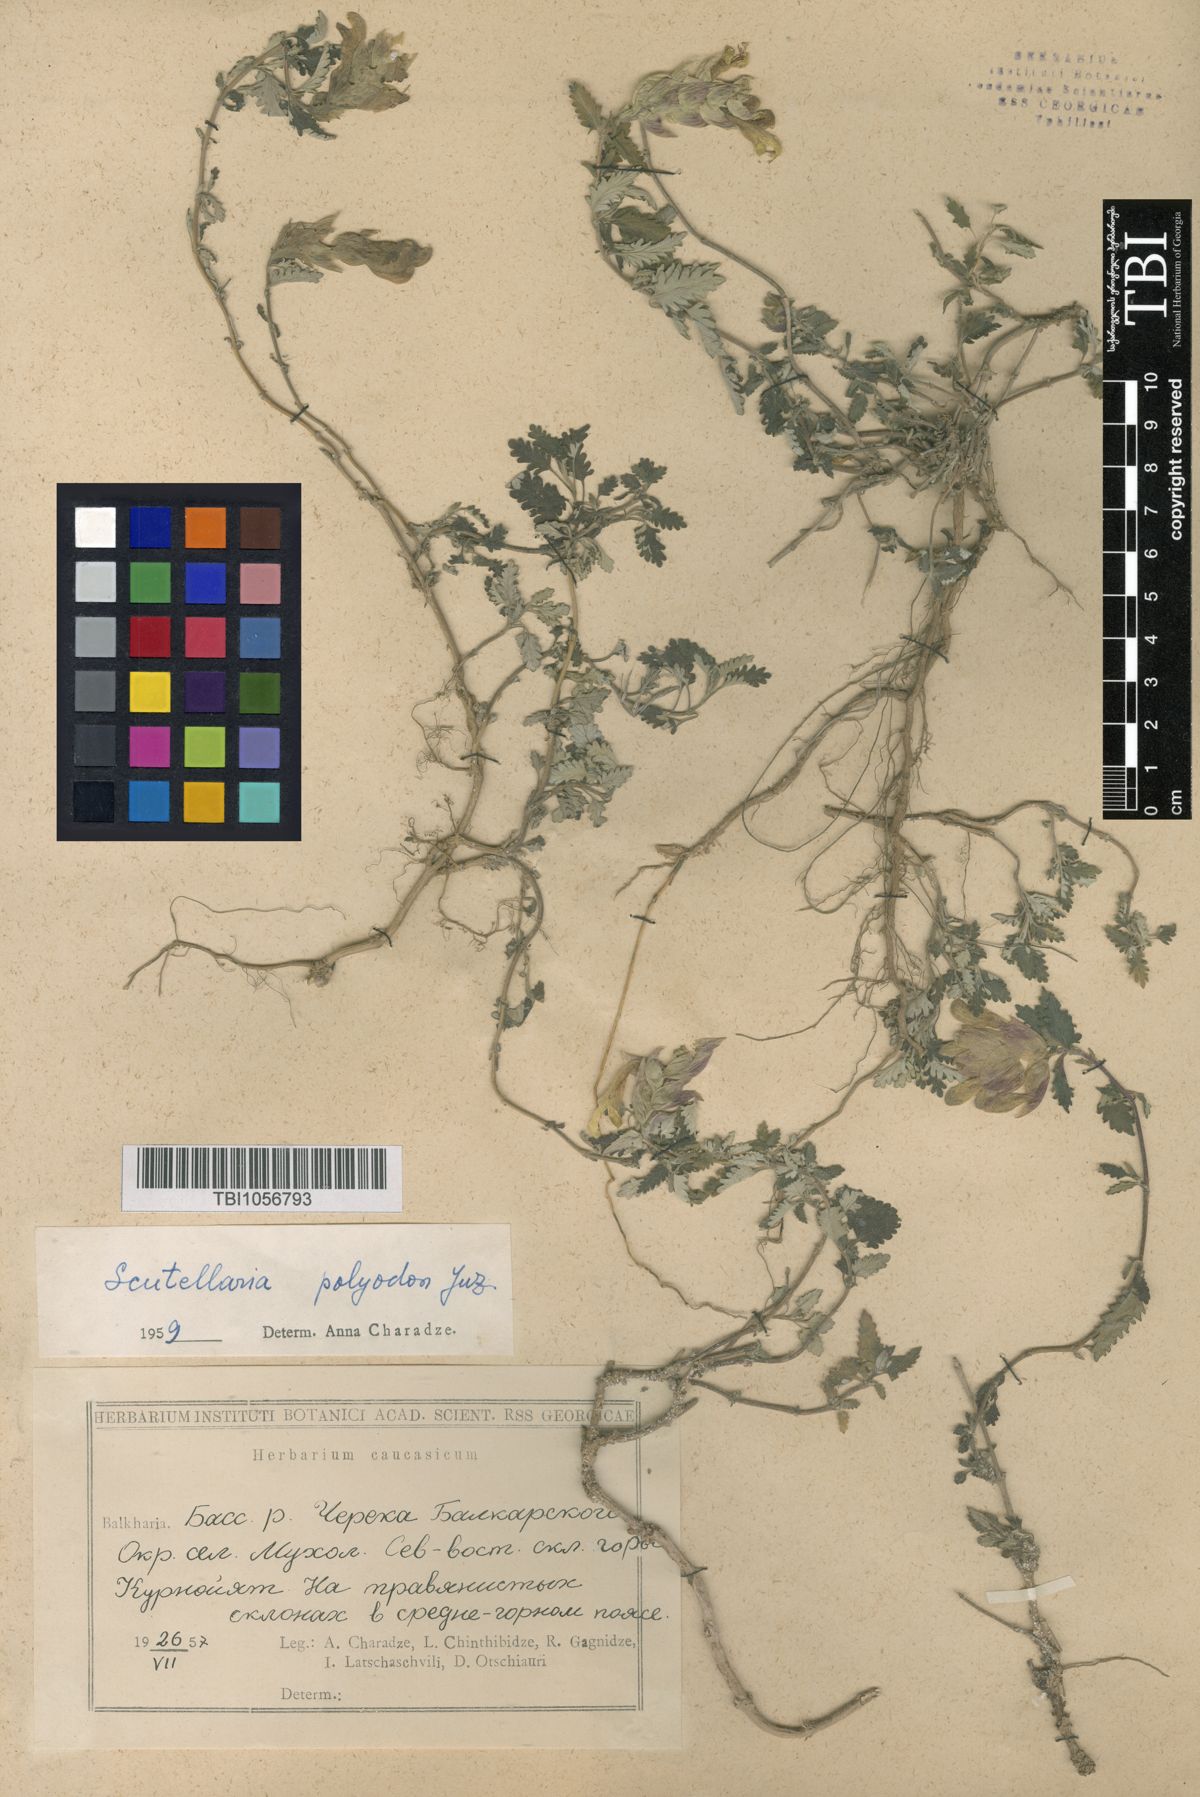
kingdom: Plantae
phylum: Tracheophyta
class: Magnoliopsida
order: Lamiales
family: Lamiaceae
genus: Scutellaria
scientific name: Scutellaria caucasica
